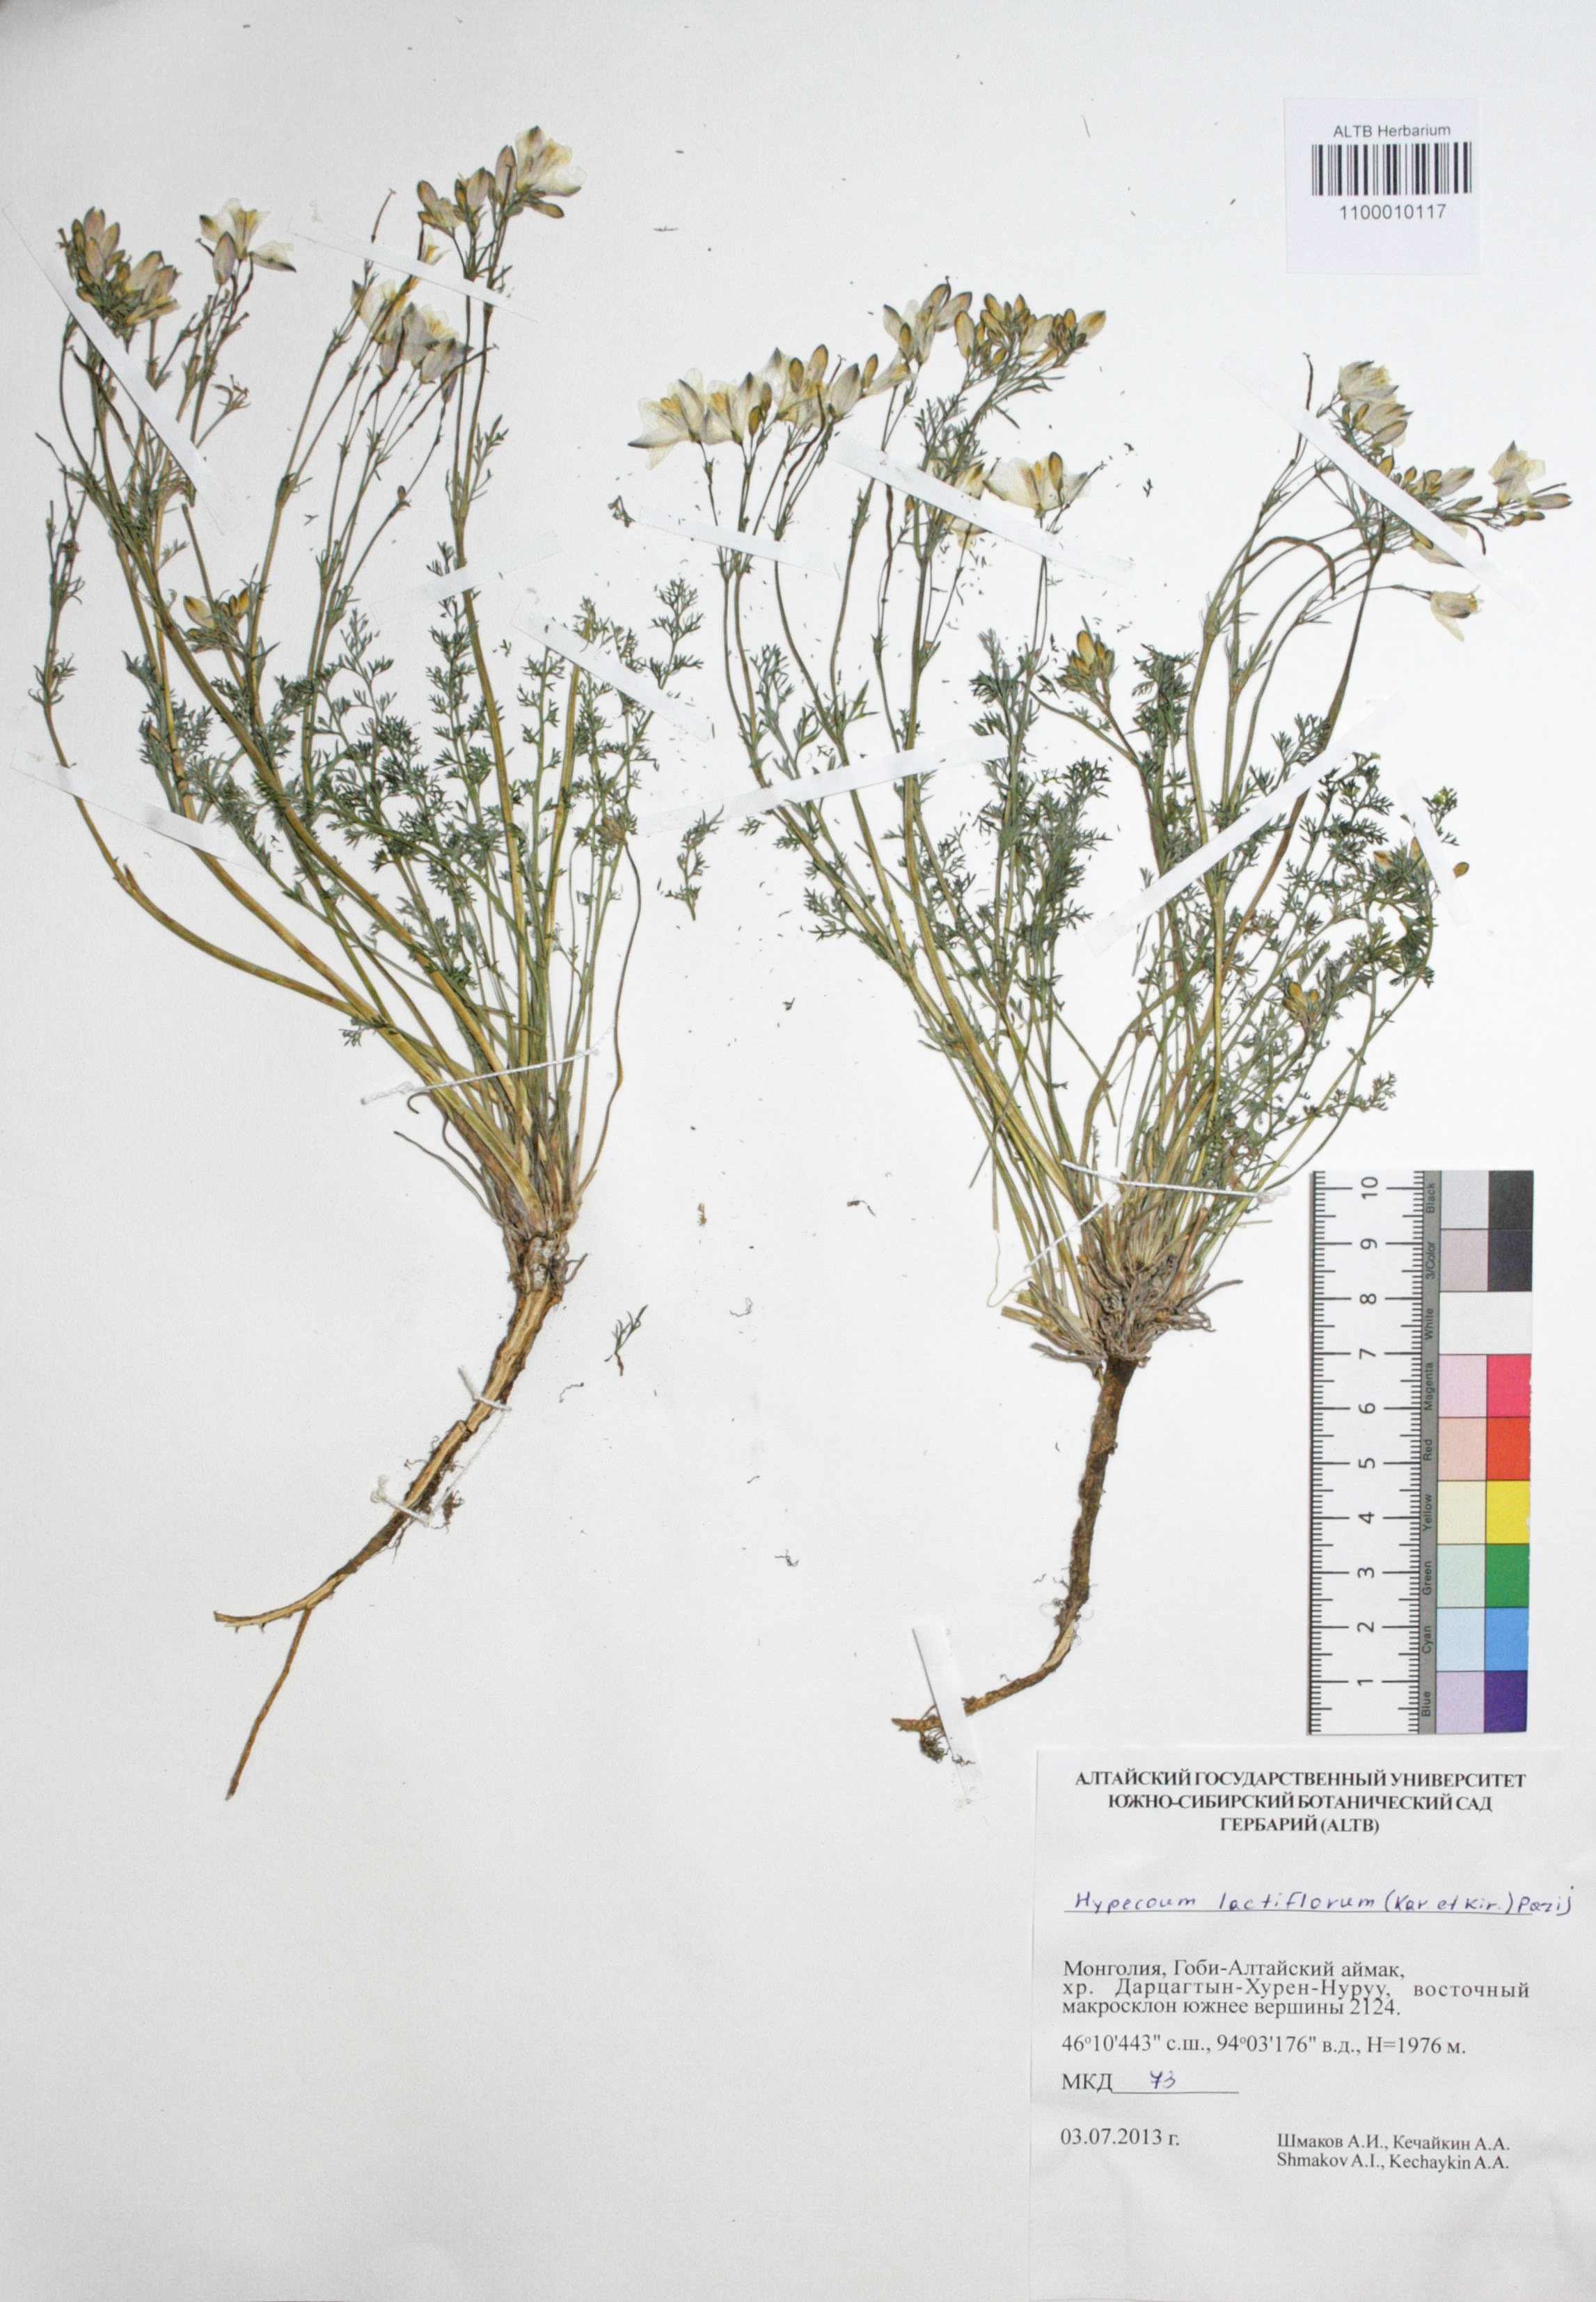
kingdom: Plantae
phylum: Tracheophyta
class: Magnoliopsida
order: Ranunculales
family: Papaveraceae
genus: Hypecoum
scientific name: Hypecoum lactiflorum
